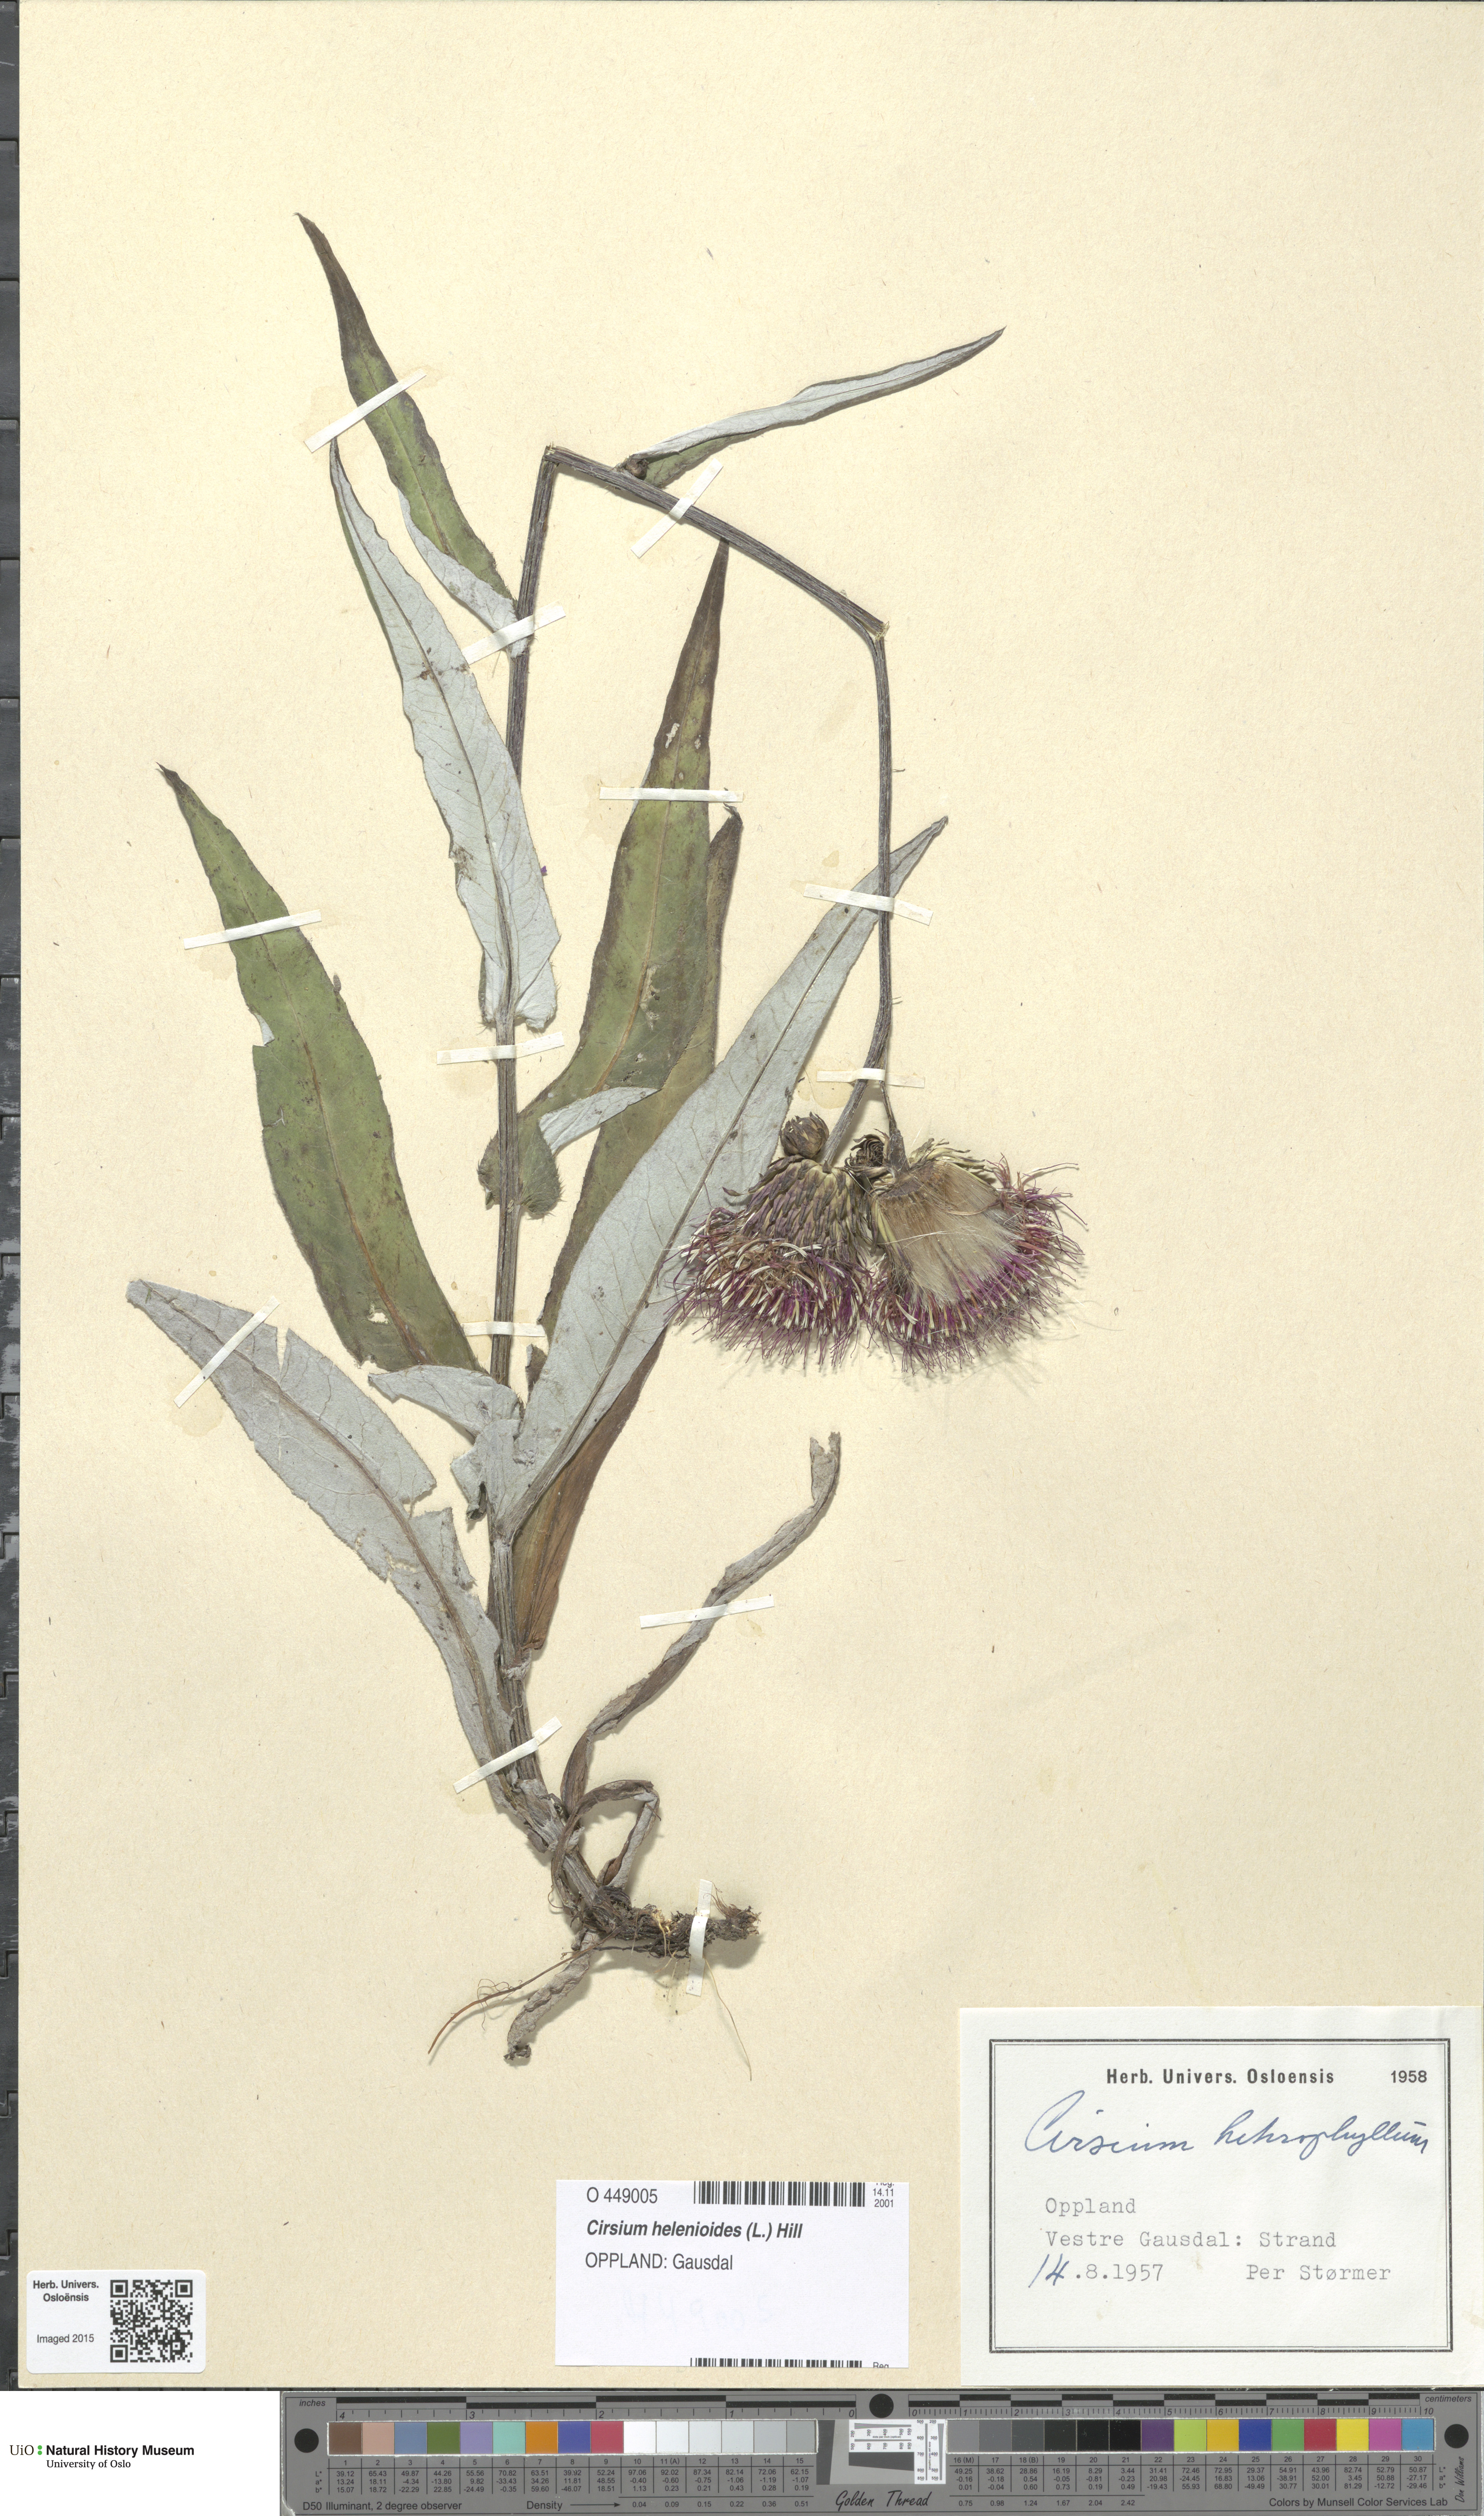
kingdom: Plantae
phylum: Tracheophyta
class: Magnoliopsida
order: Asterales
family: Asteraceae
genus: Cirsium
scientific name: Cirsium heterophyllum
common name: Melancholy thistle
